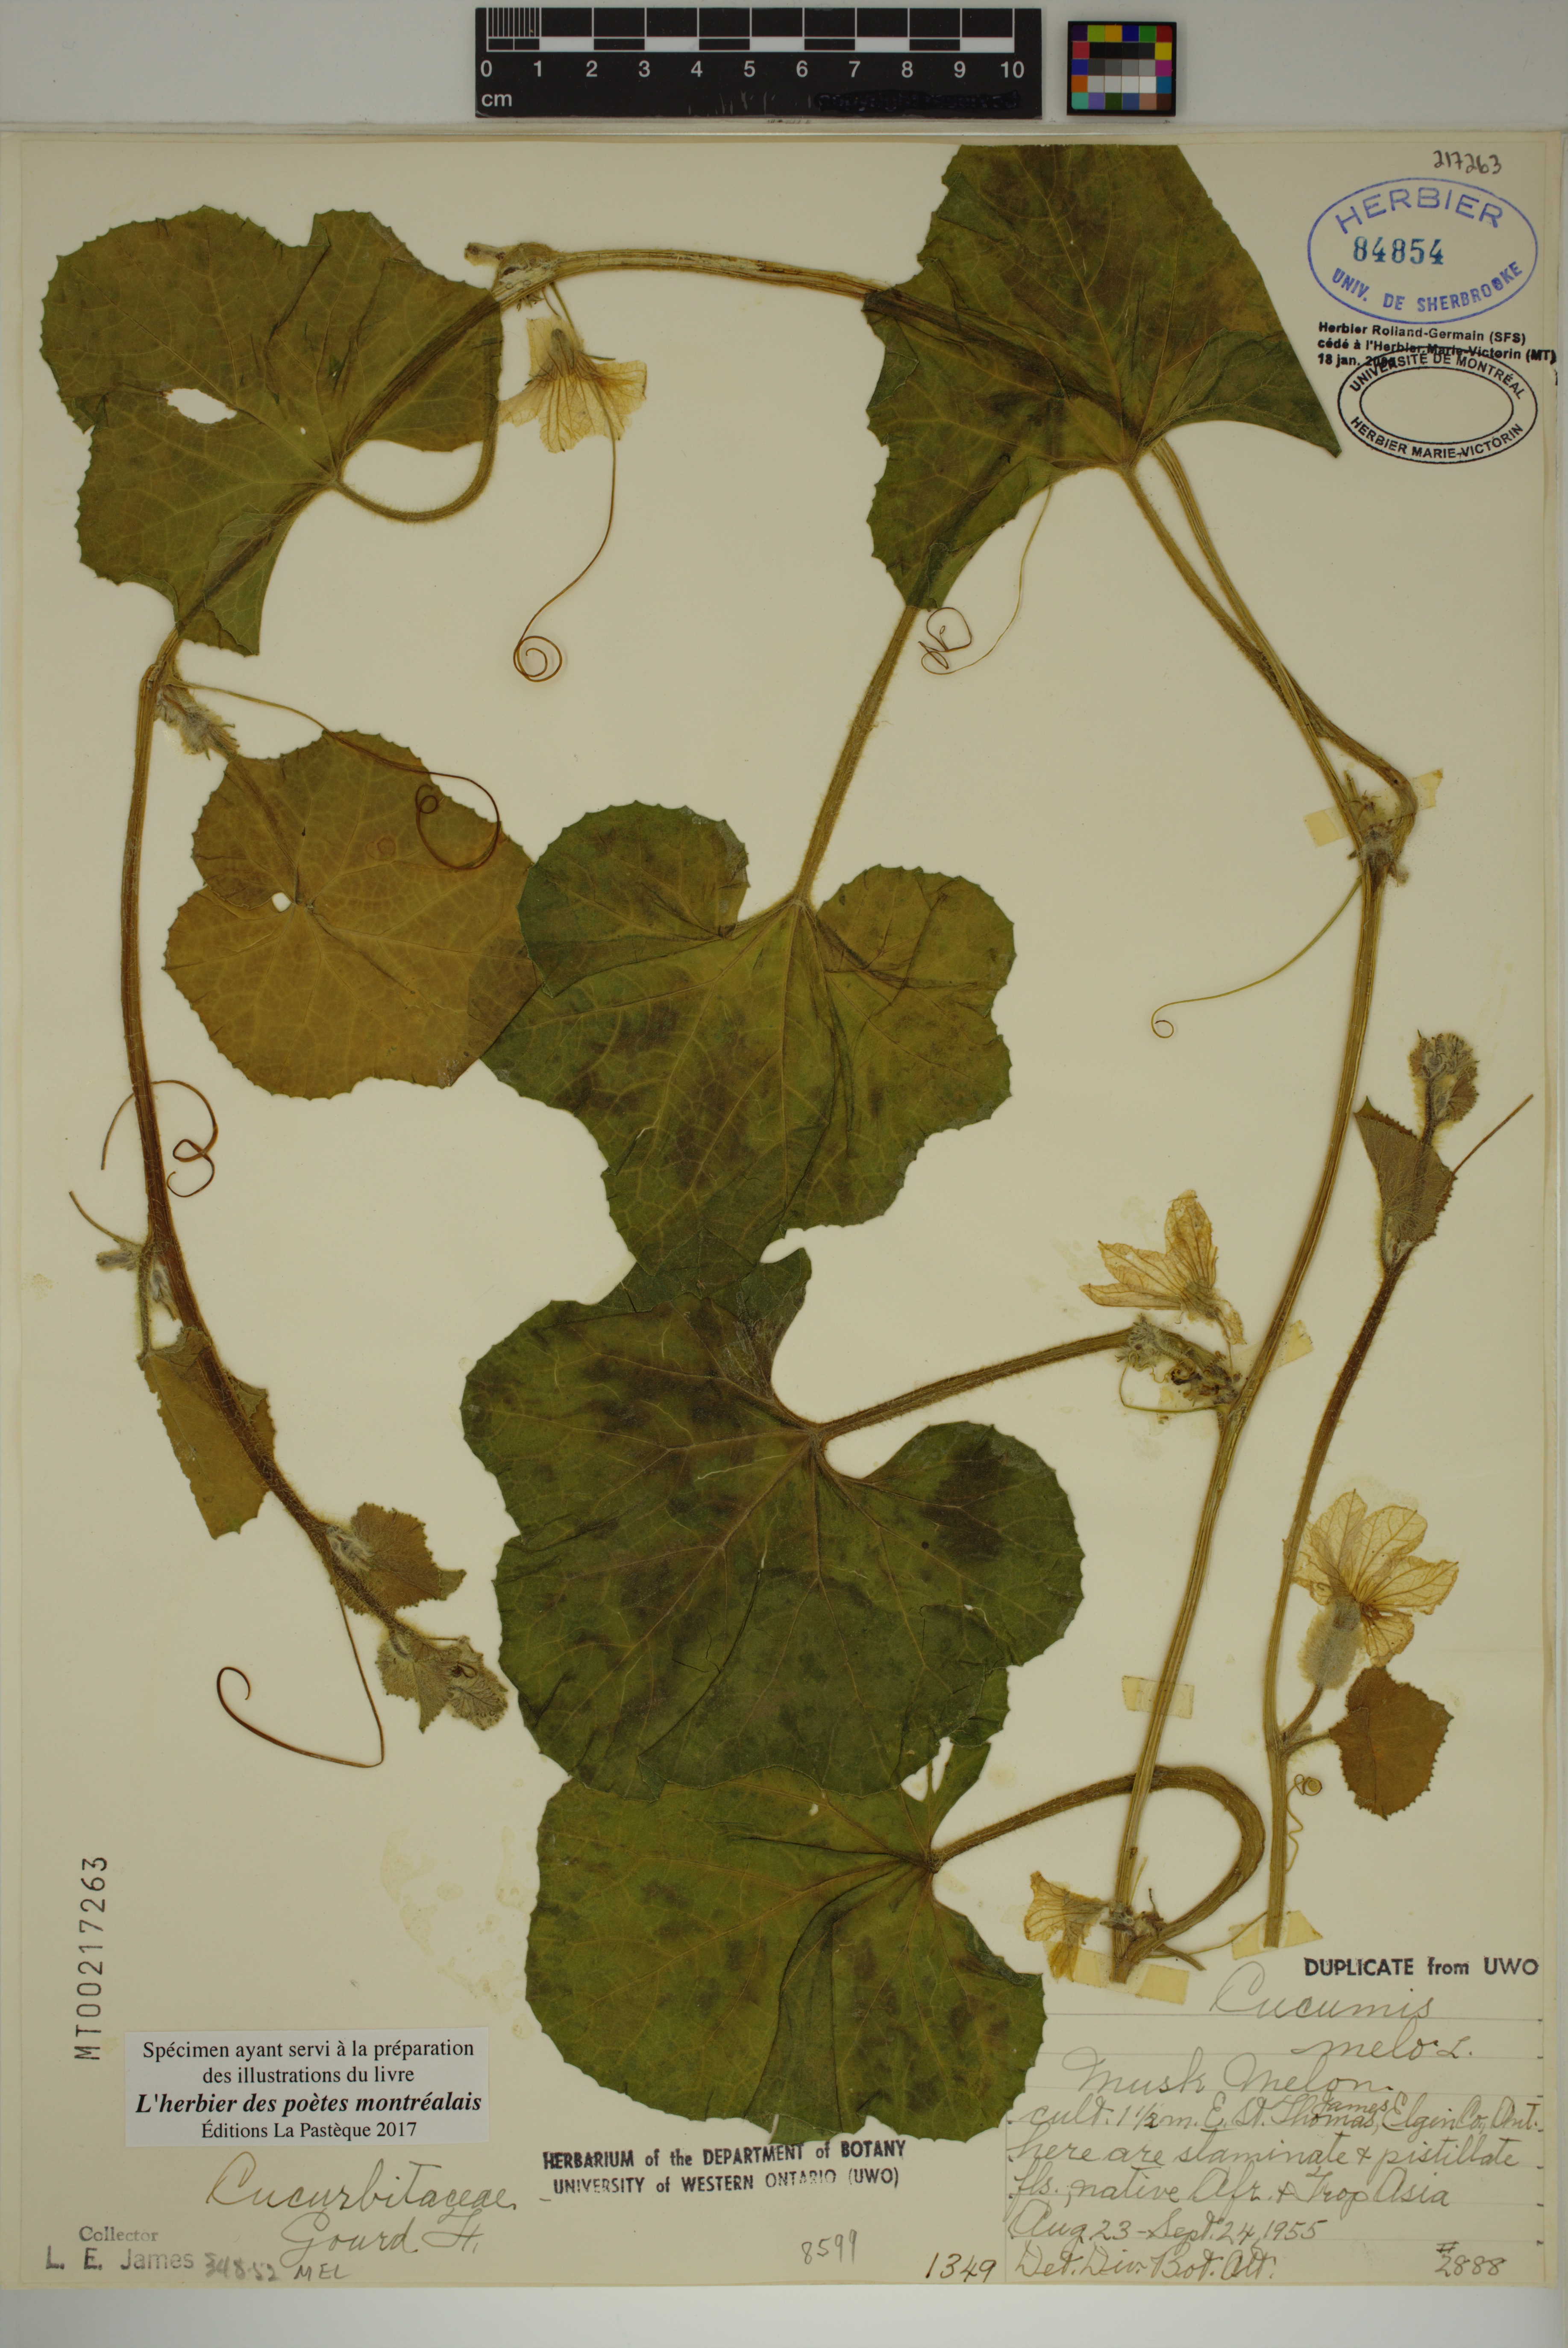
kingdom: Plantae
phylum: Tracheophyta
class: Magnoliopsida
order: Cucurbitales
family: Cucurbitaceae
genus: Cucumis
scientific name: Cucumis melo
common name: Melon
